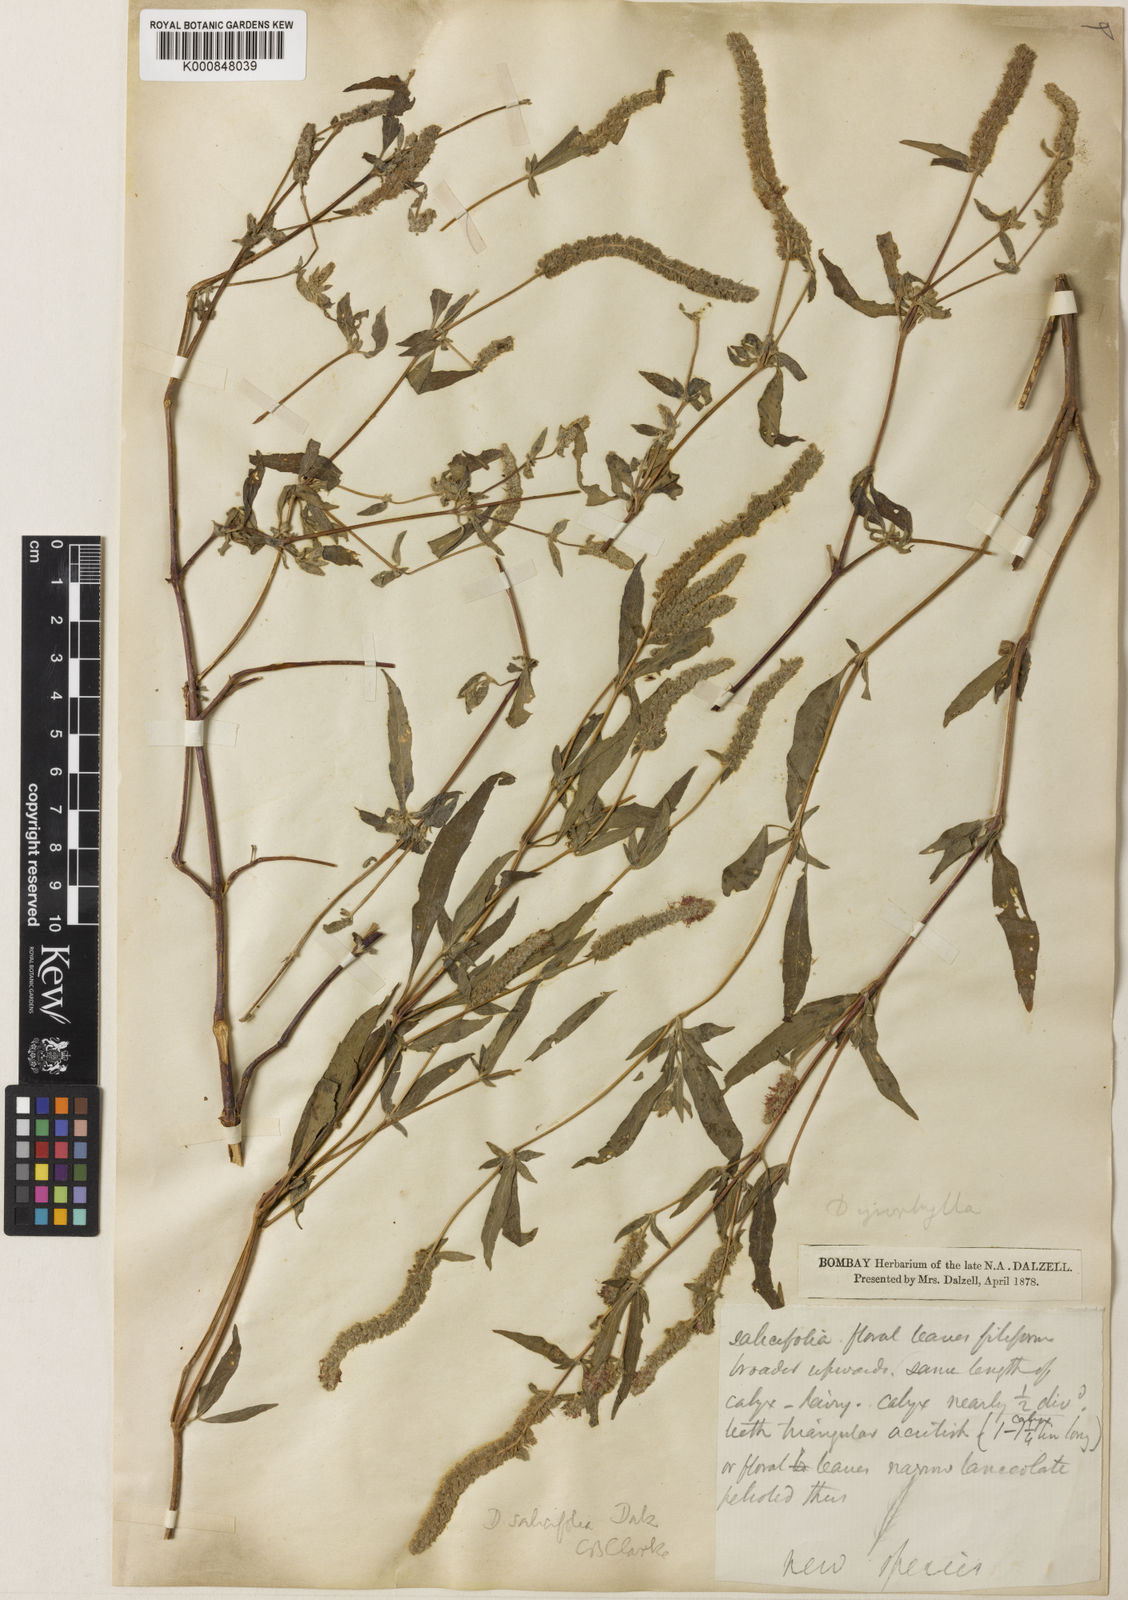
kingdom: Plantae
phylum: Tracheophyta
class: Magnoliopsida
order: Lamiales
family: Lamiaceae
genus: Pogostemon
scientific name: Pogostemon salicifolius
